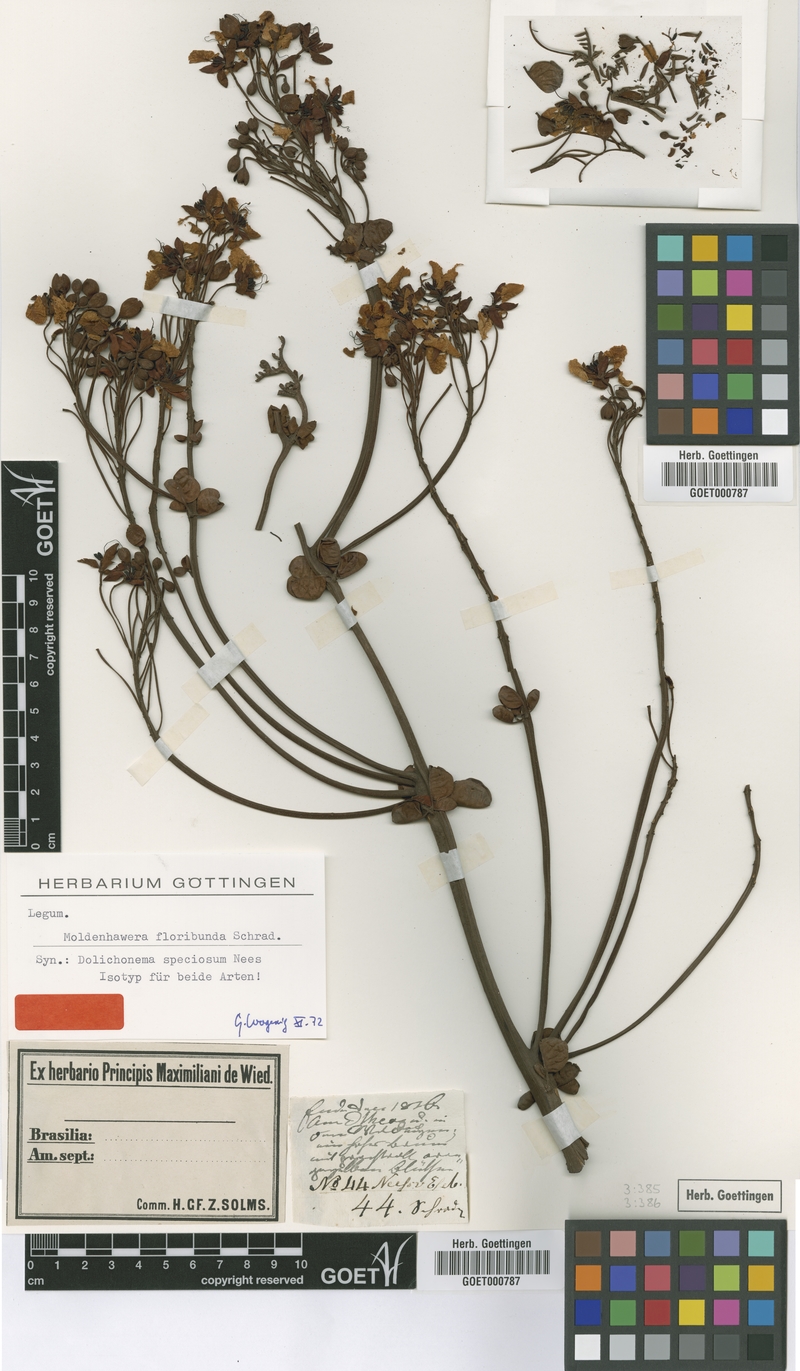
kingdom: Plantae
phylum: Tracheophyta
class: Magnoliopsida
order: Fabales
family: Fabaceae
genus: Moldenhawera
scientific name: Moldenhawera floribunda
